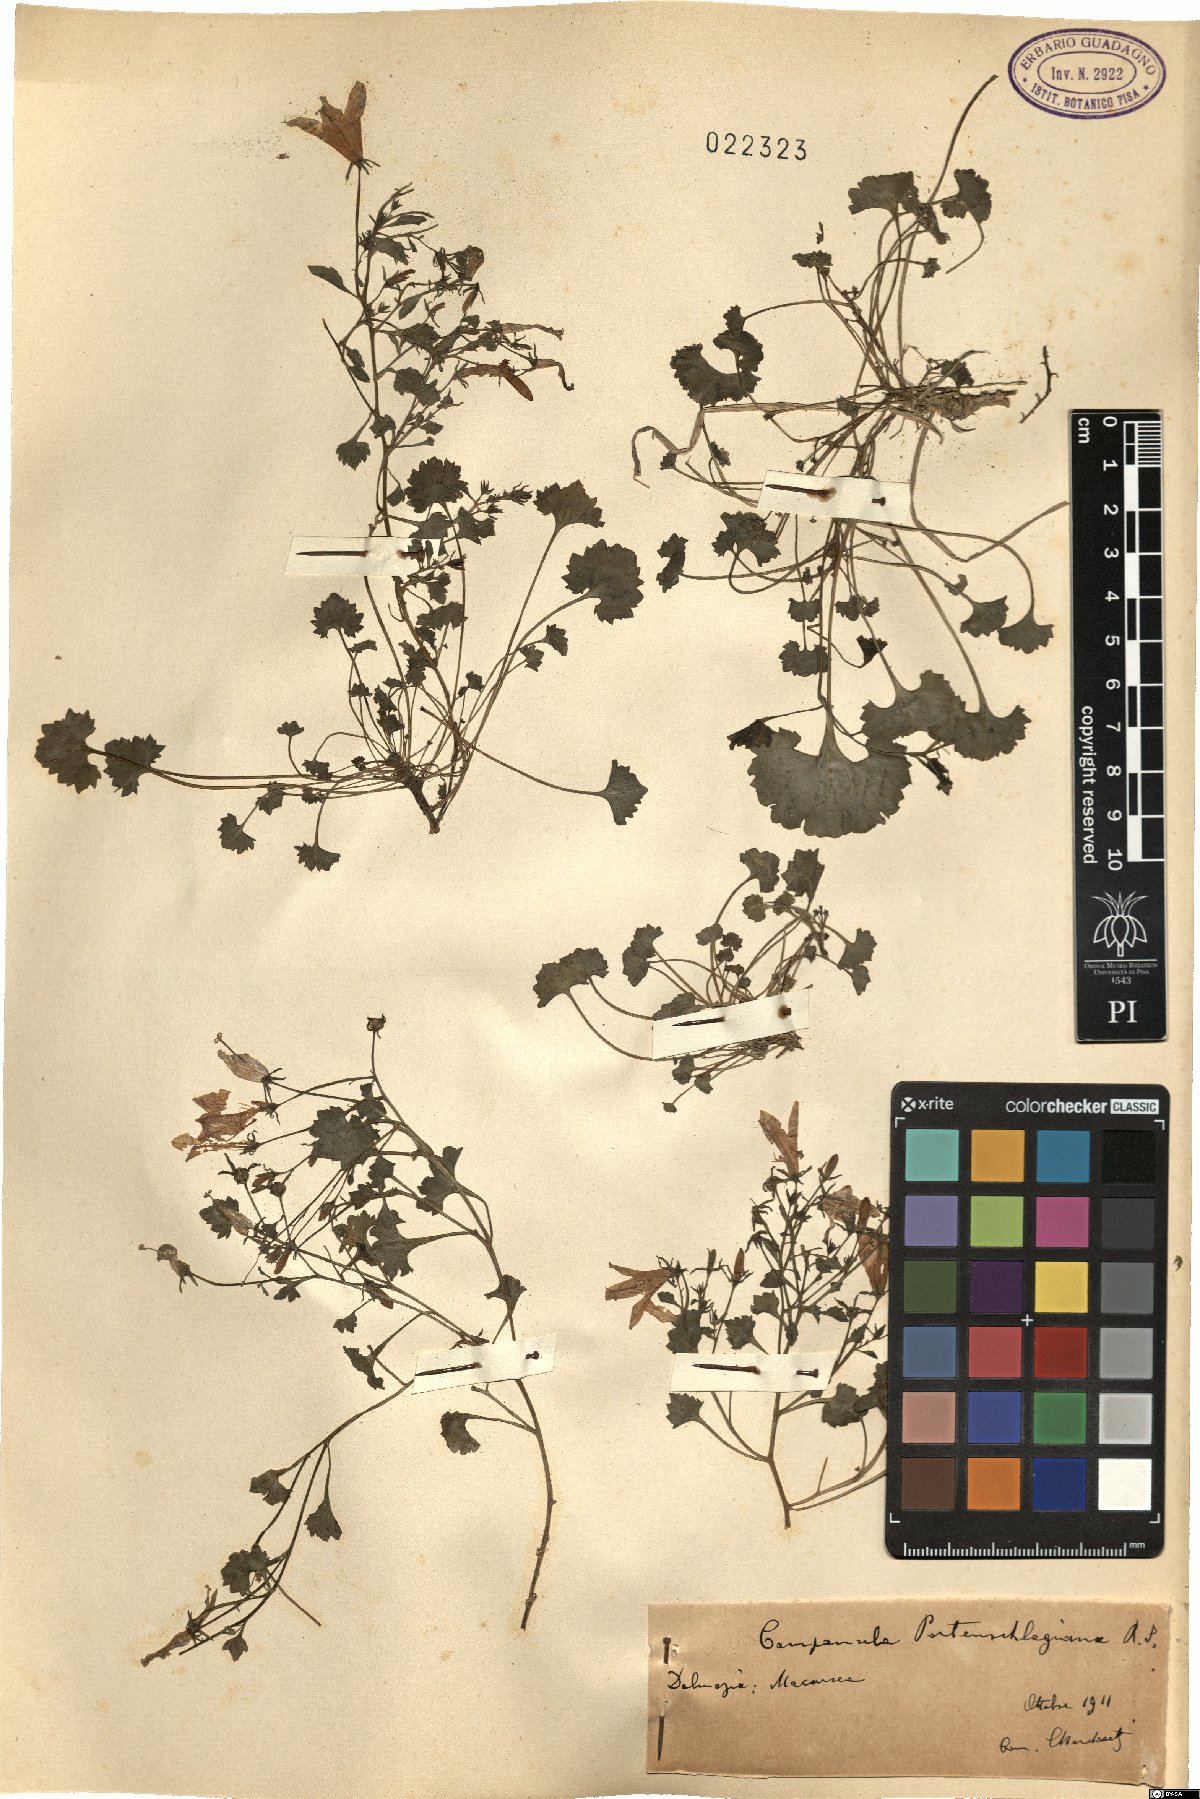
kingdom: Plantae
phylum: Tracheophyta
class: Magnoliopsida
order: Asterales
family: Campanulaceae
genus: Campanula
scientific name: Campanula portenschlagiana
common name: Adria bellflower
